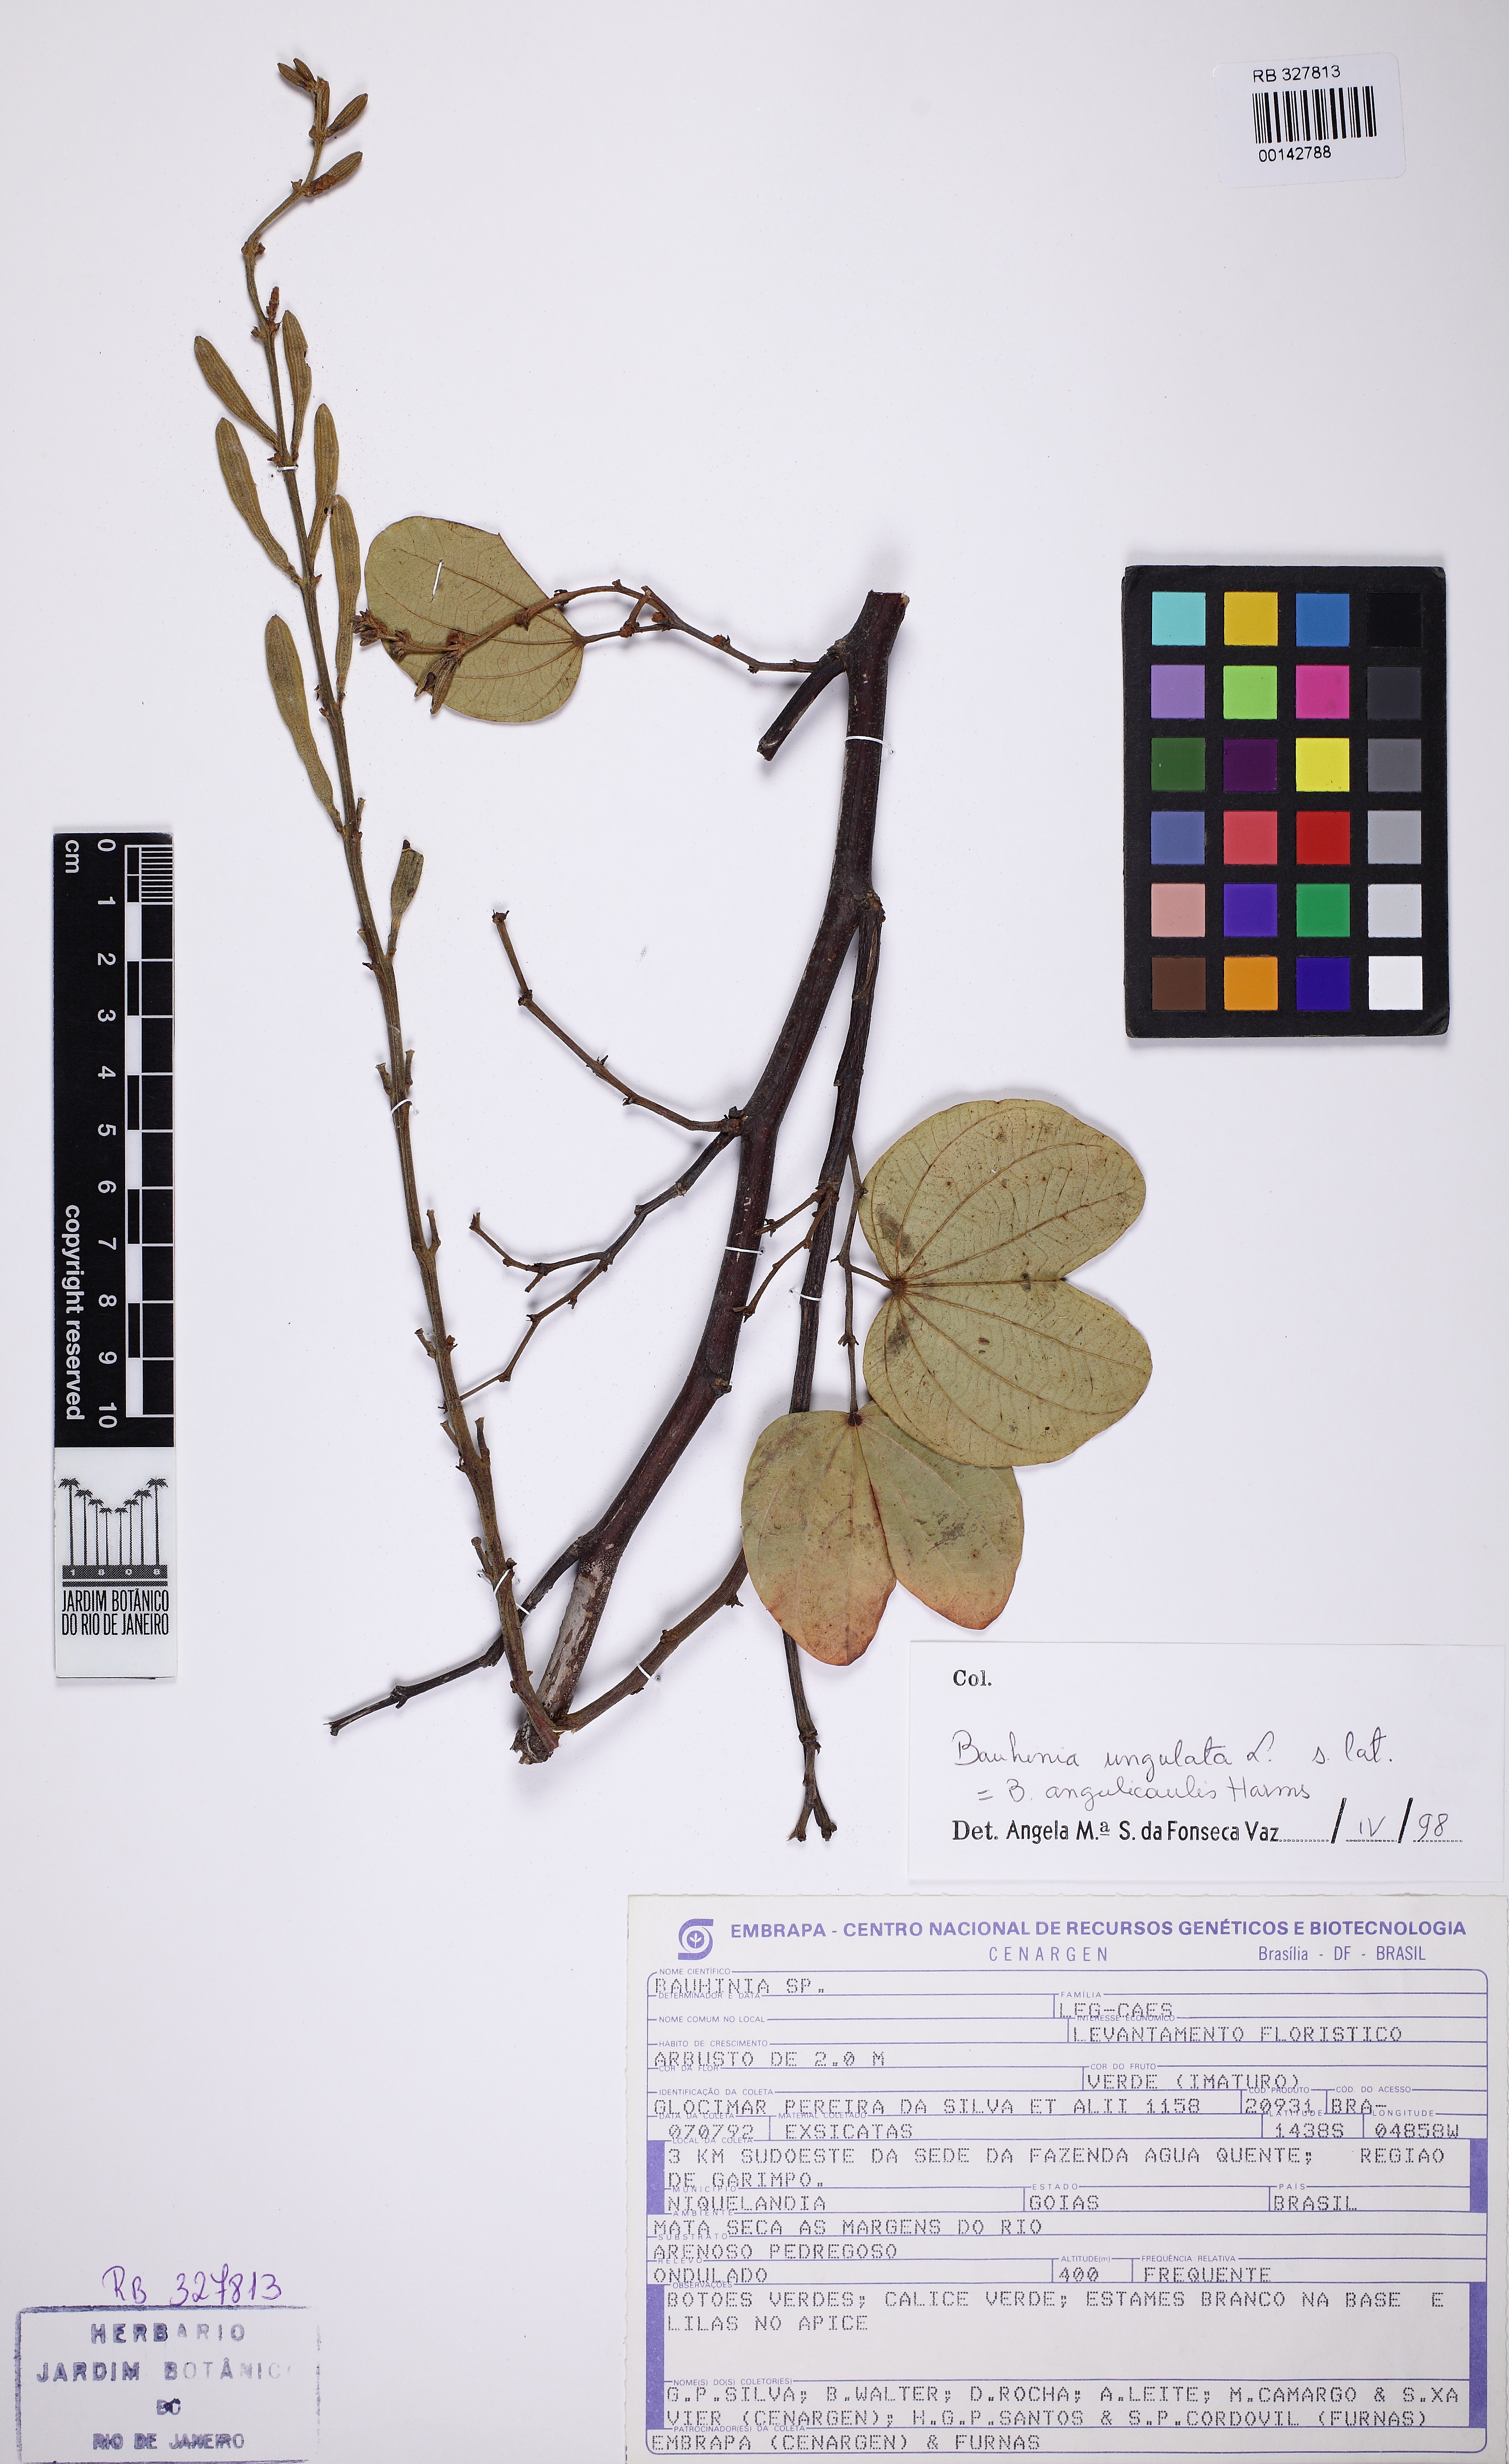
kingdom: Plantae
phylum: Tracheophyta
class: Magnoliopsida
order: Fabales
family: Fabaceae
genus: Bauhinia
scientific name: Bauhinia ungulata
